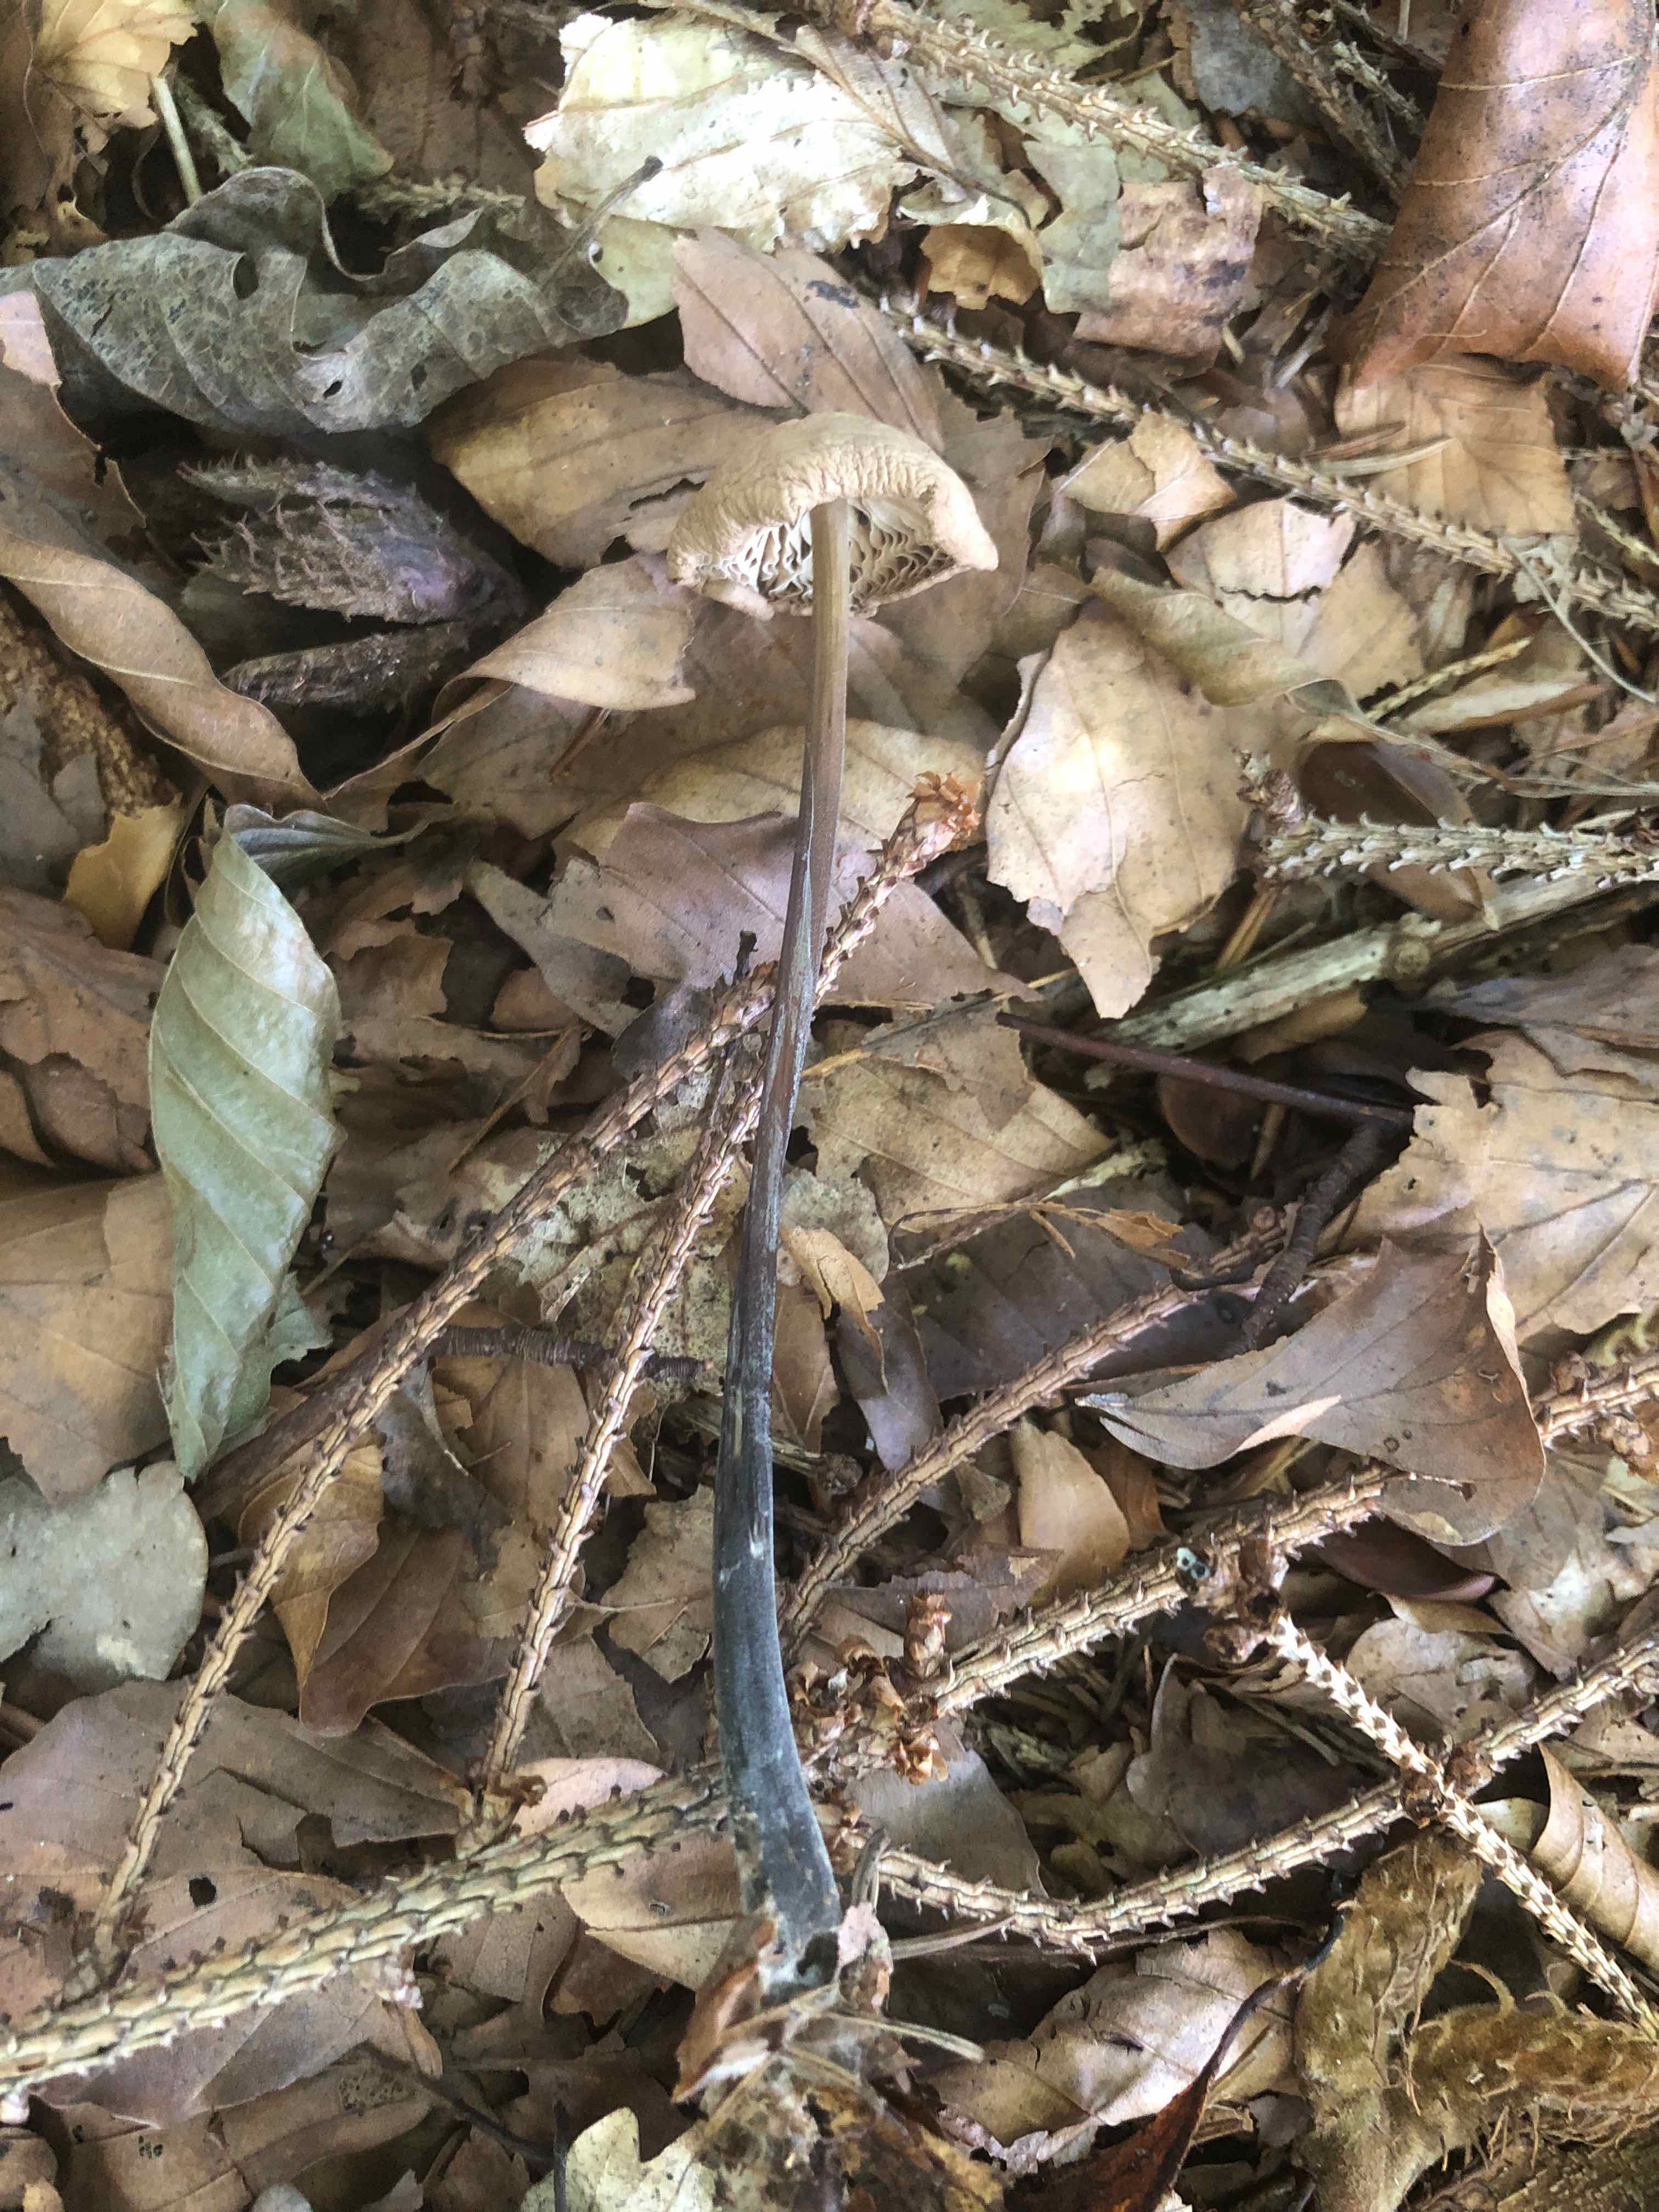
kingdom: Fungi
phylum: Basidiomycota
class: Agaricomycetes
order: Agaricales
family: Omphalotaceae
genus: Mycetinis
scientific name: Mycetinis alliaceus
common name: stor løghat
